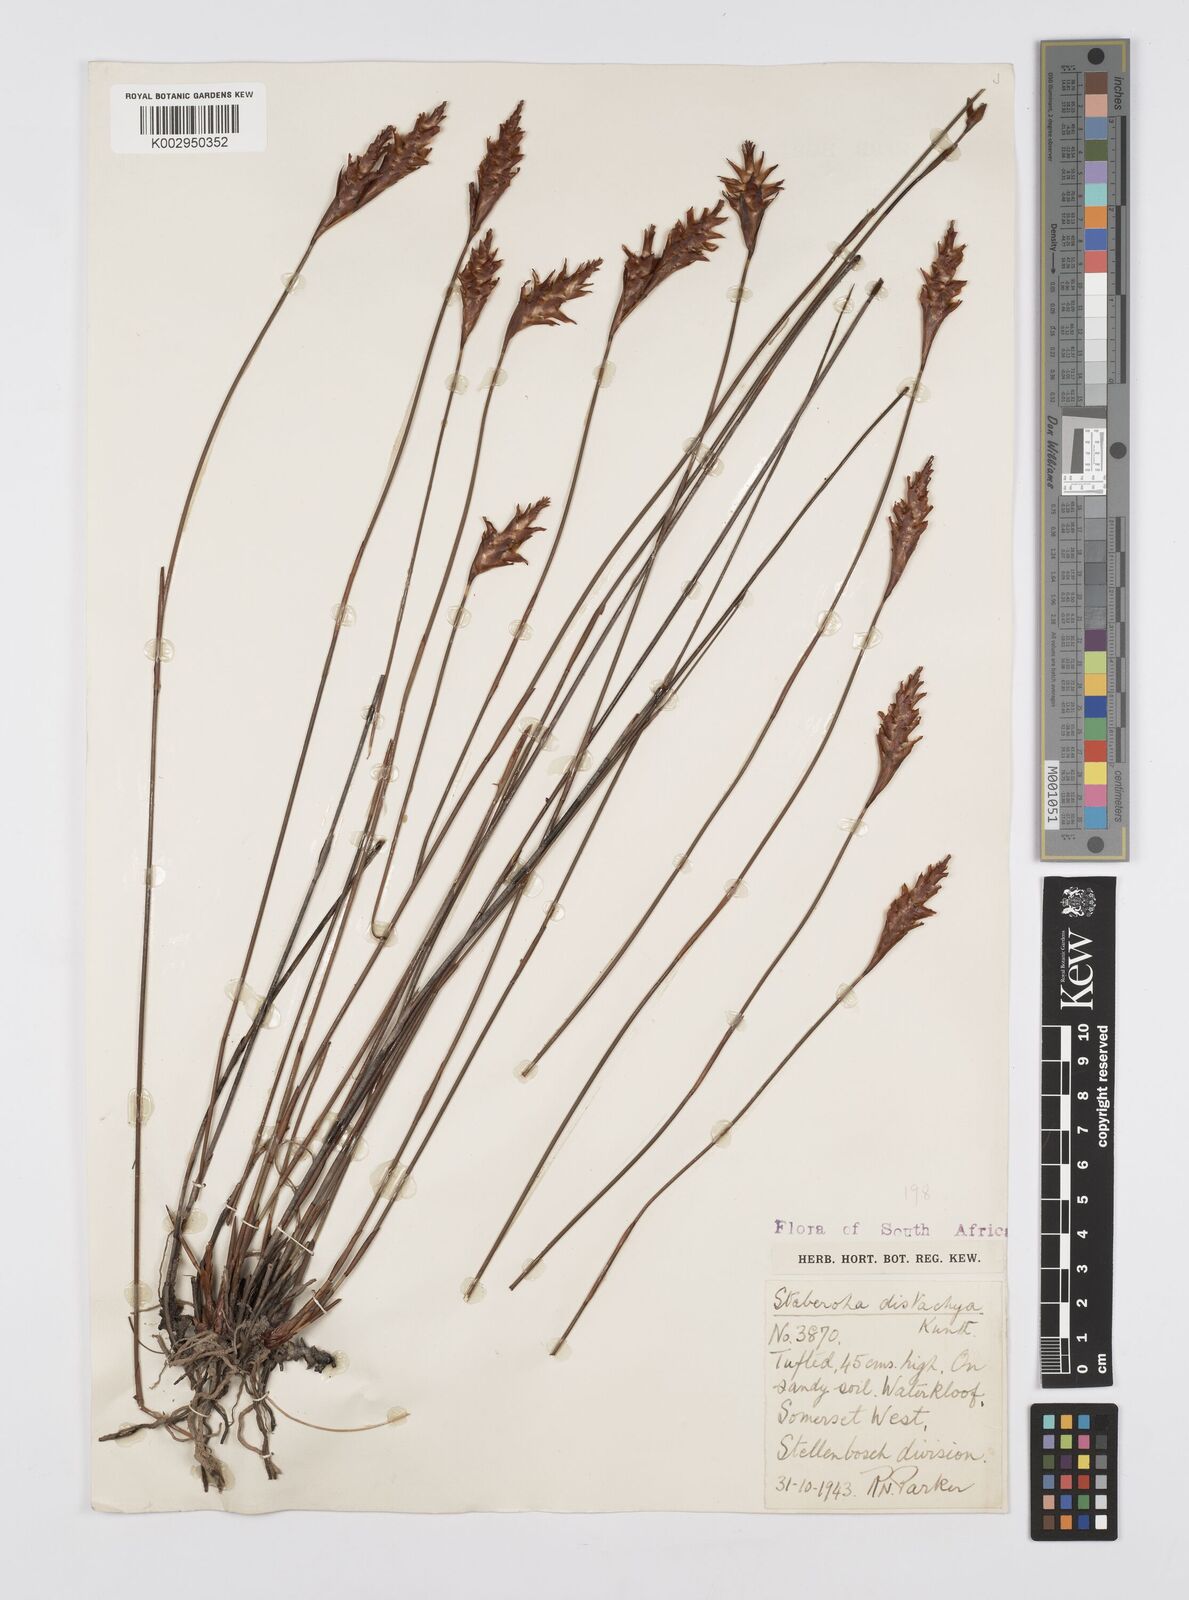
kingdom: Plantae
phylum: Tracheophyta
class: Liliopsida
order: Poales
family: Restionaceae
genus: Staberoha
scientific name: Staberoha distachyos
